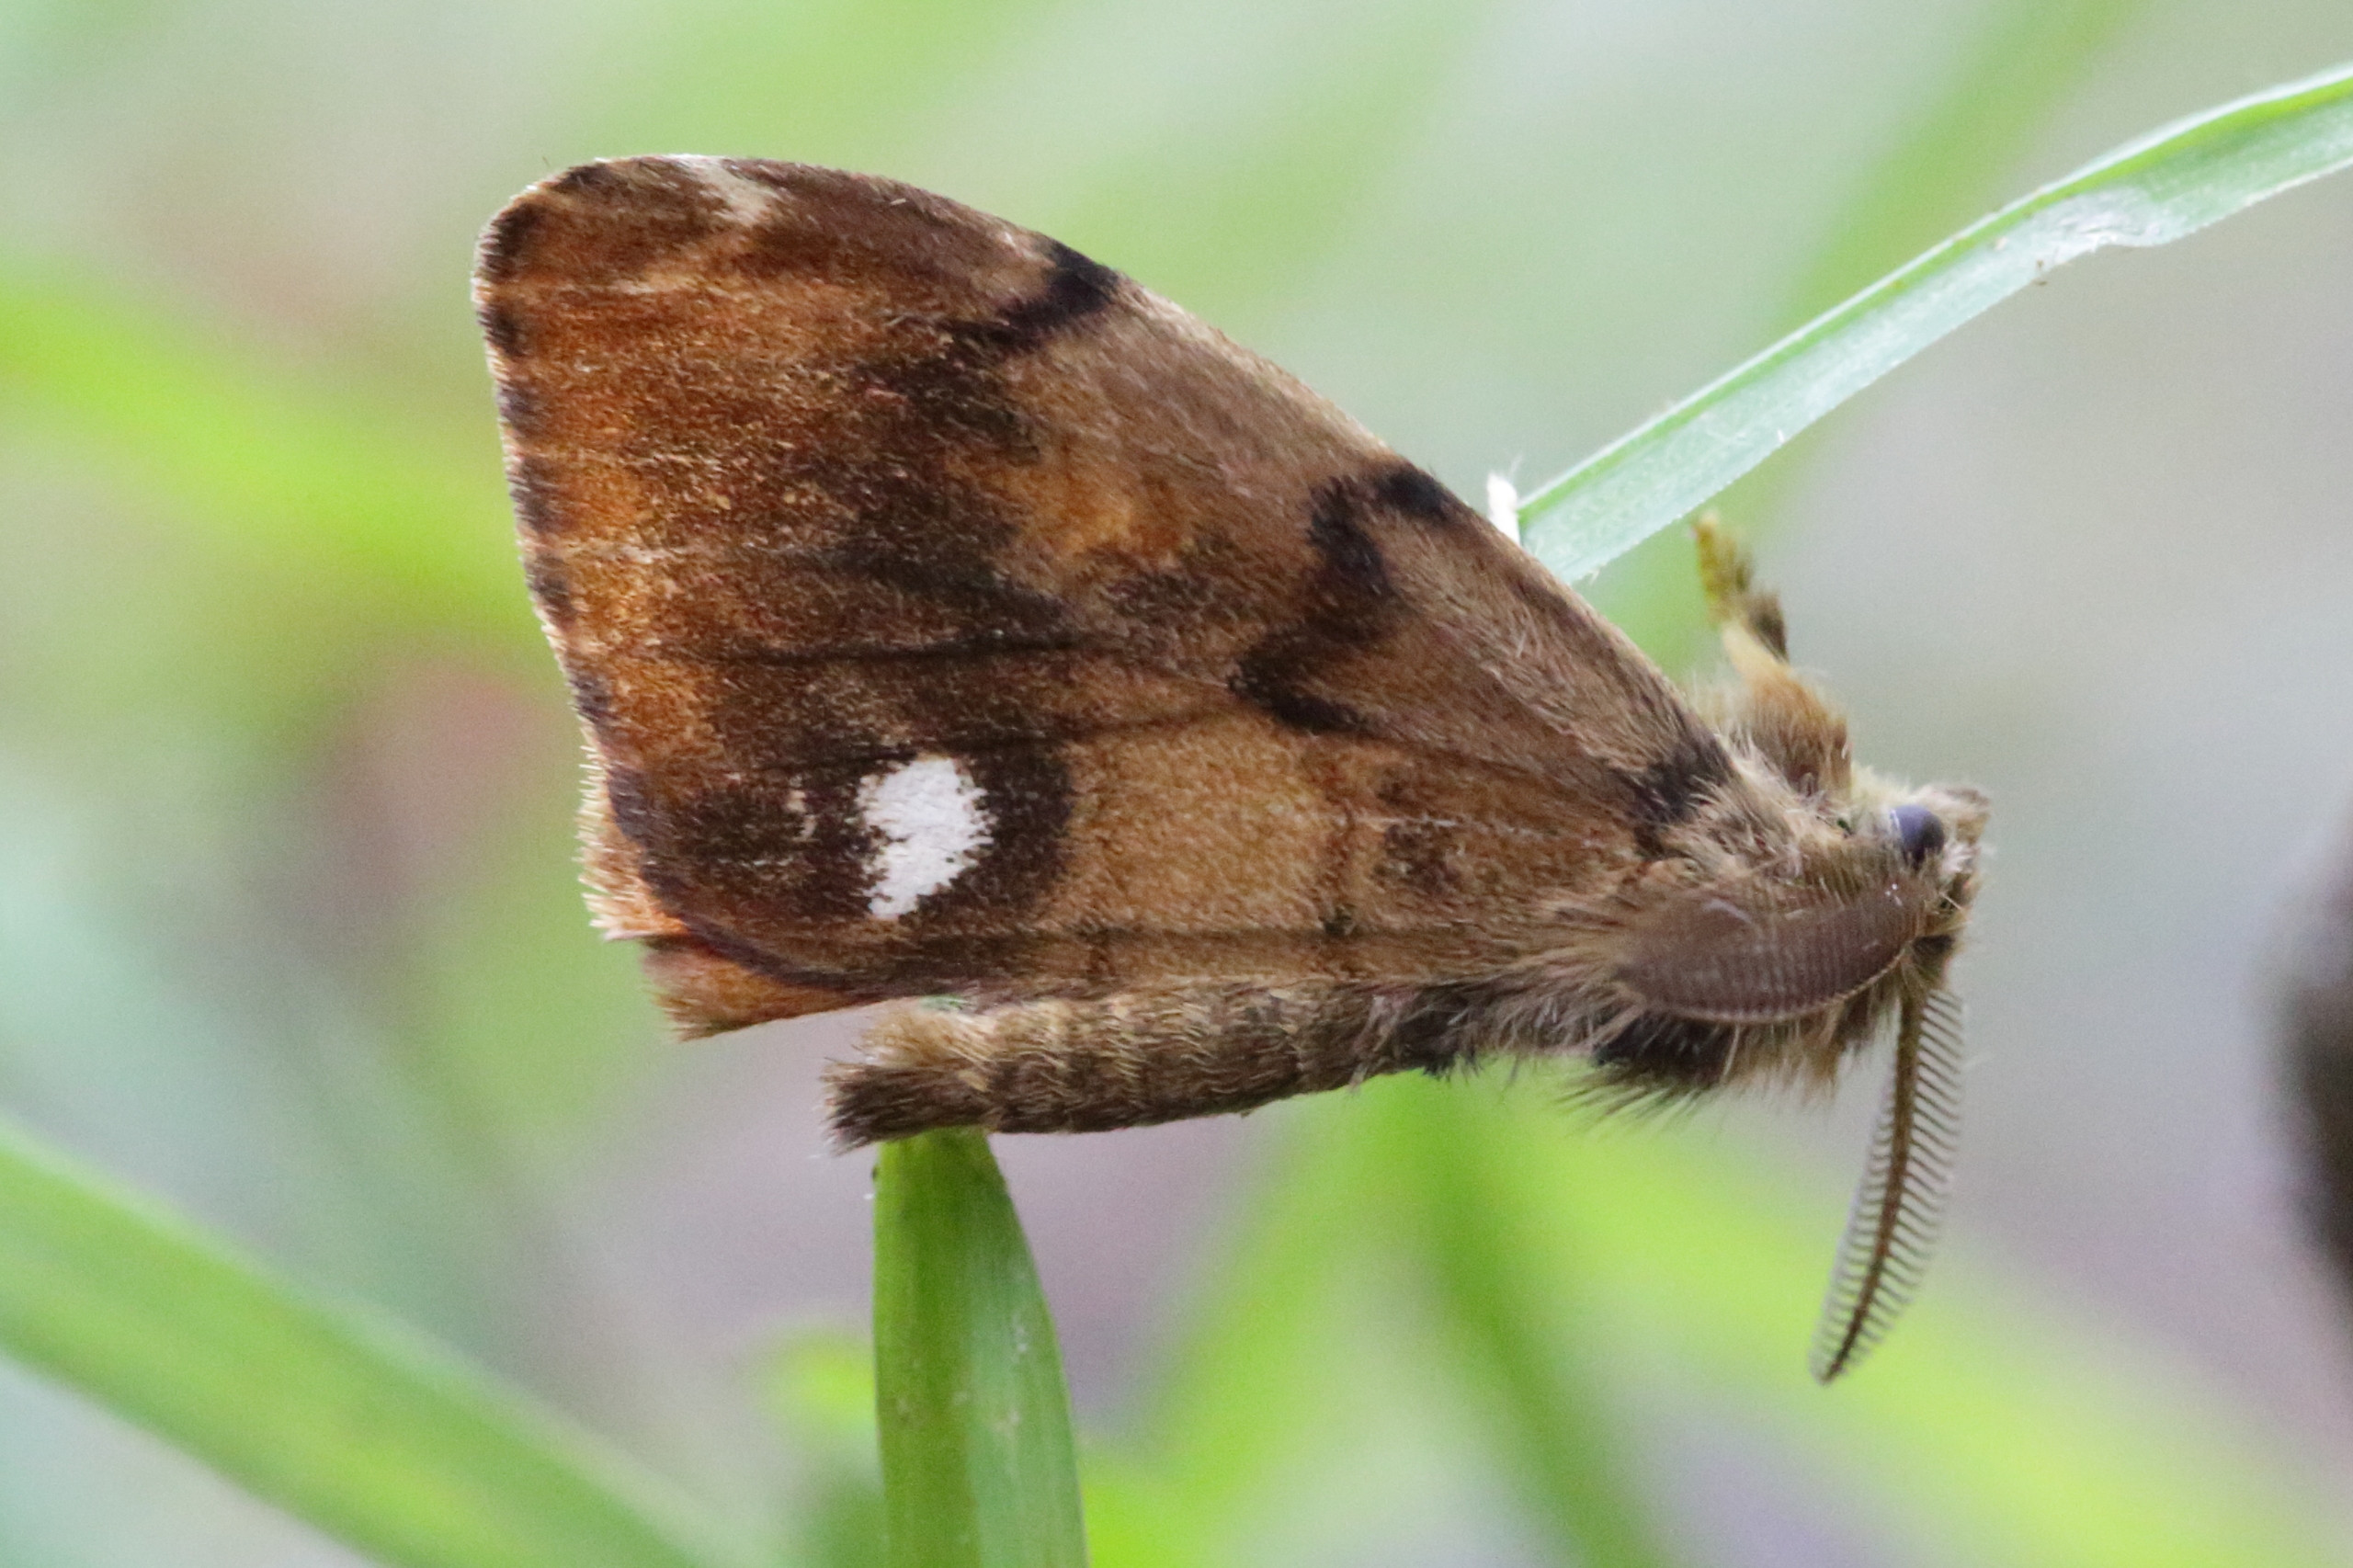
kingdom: Animalia
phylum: Arthropoda
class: Insecta
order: Lepidoptera
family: Erebidae
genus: Orgyia
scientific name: Orgyia antiqua
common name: Lille penselspinder
